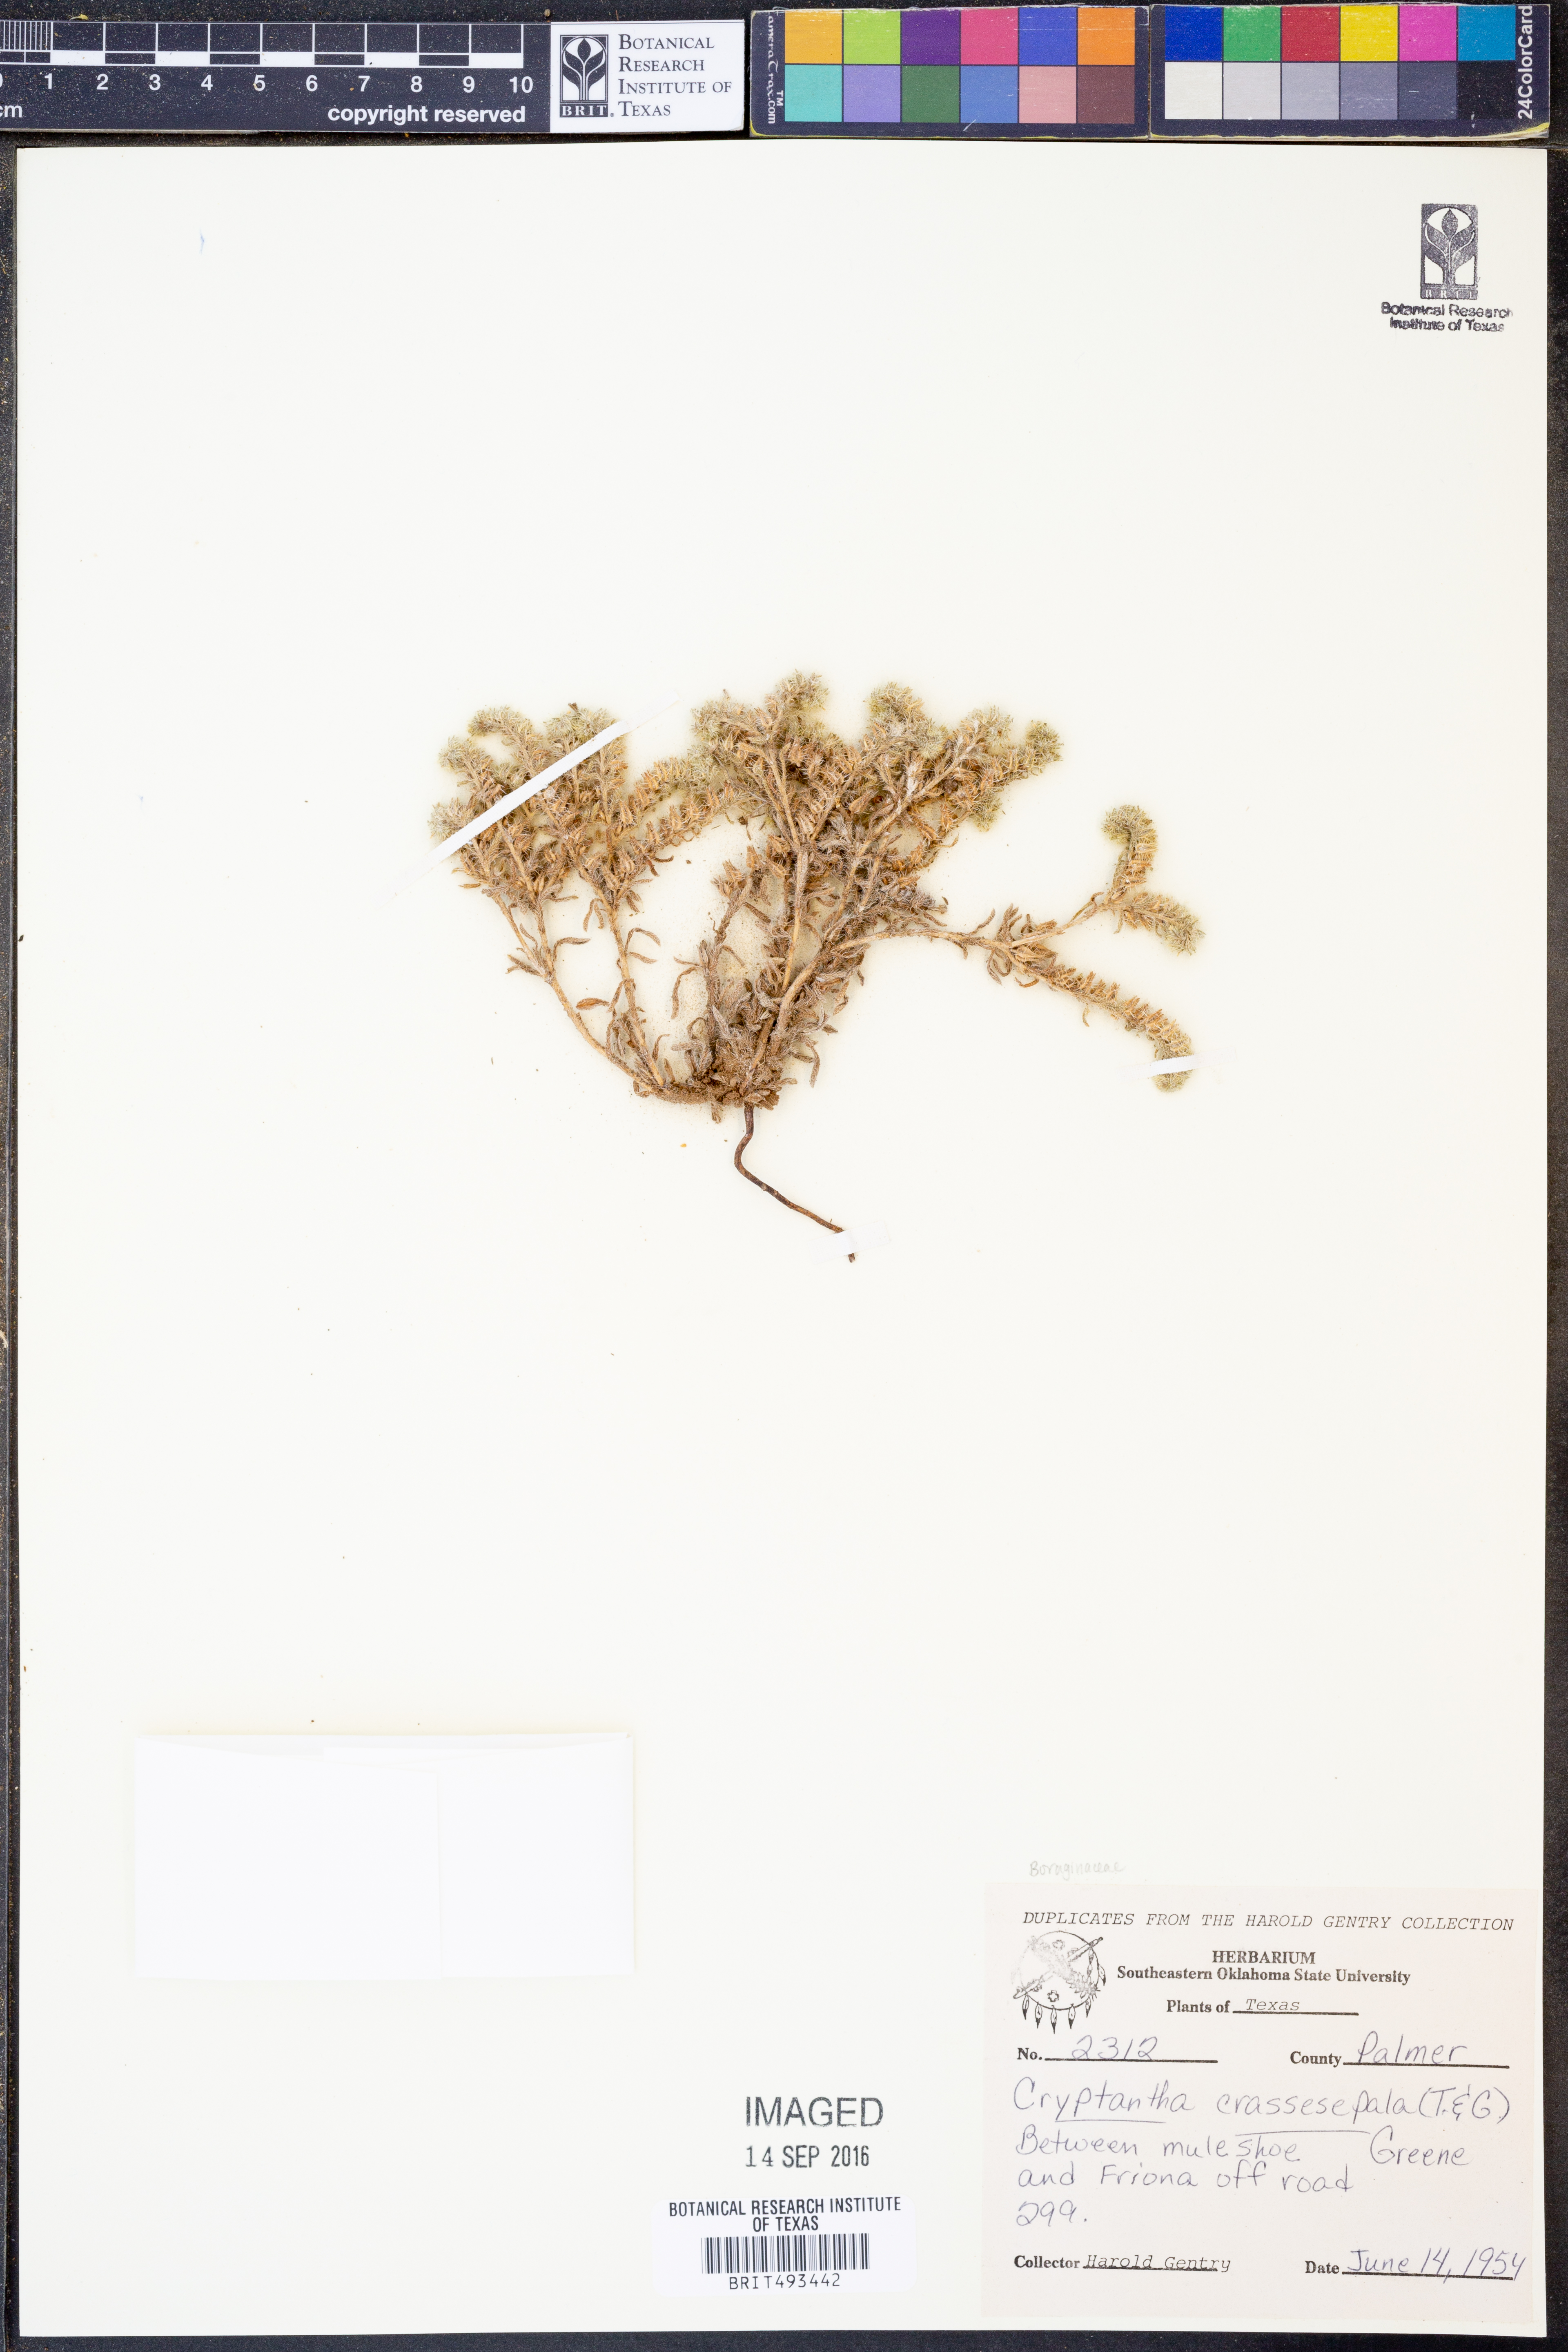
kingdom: Plantae
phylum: Tracheophyta
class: Magnoliopsida
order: Boraginales
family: Boraginaceae
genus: Cryptantha
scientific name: Cryptantha crassisepala
